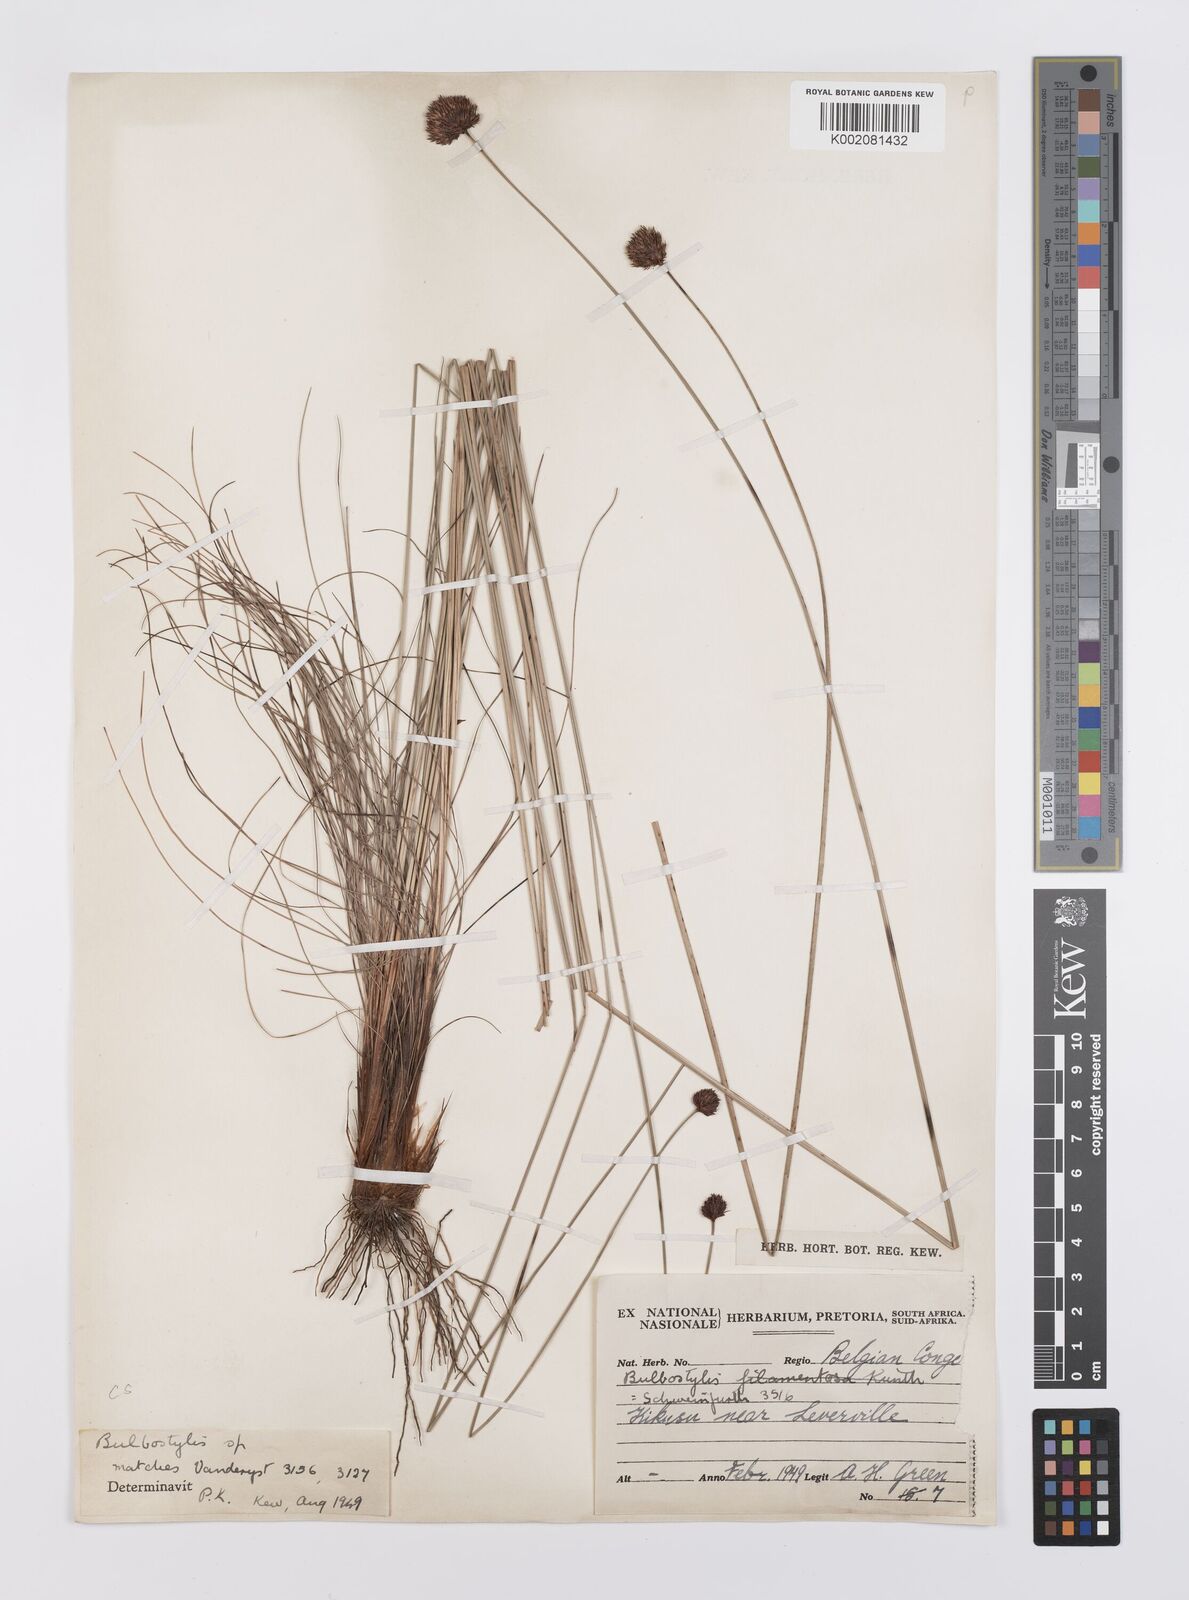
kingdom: Plantae
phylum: Tracheophyta
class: Liliopsida
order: Poales
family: Cyperaceae
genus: Bulbostylis
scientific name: Bulbostylis filamentosa
